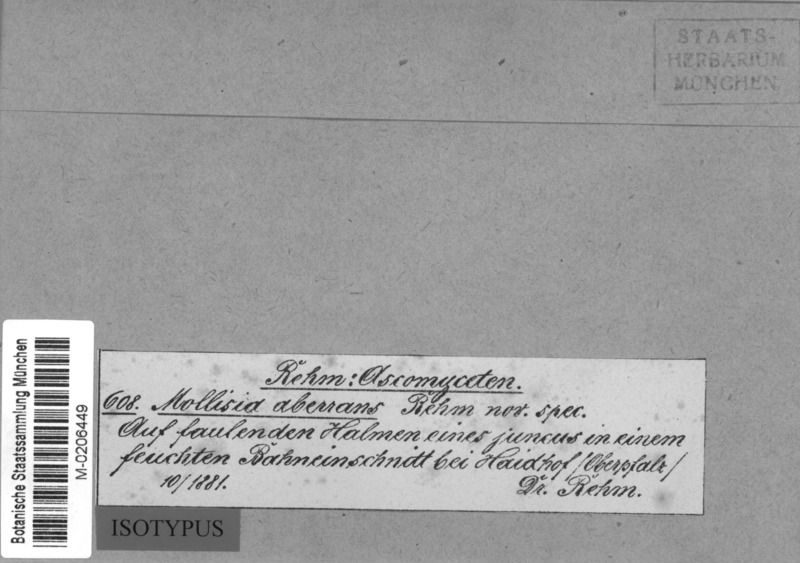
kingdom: Fungi
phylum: Ascomycota
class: Leotiomycetes
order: Helotiales
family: Dermateaceae
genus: Hysteropezizella
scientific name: Hysteropezizella pusilla
